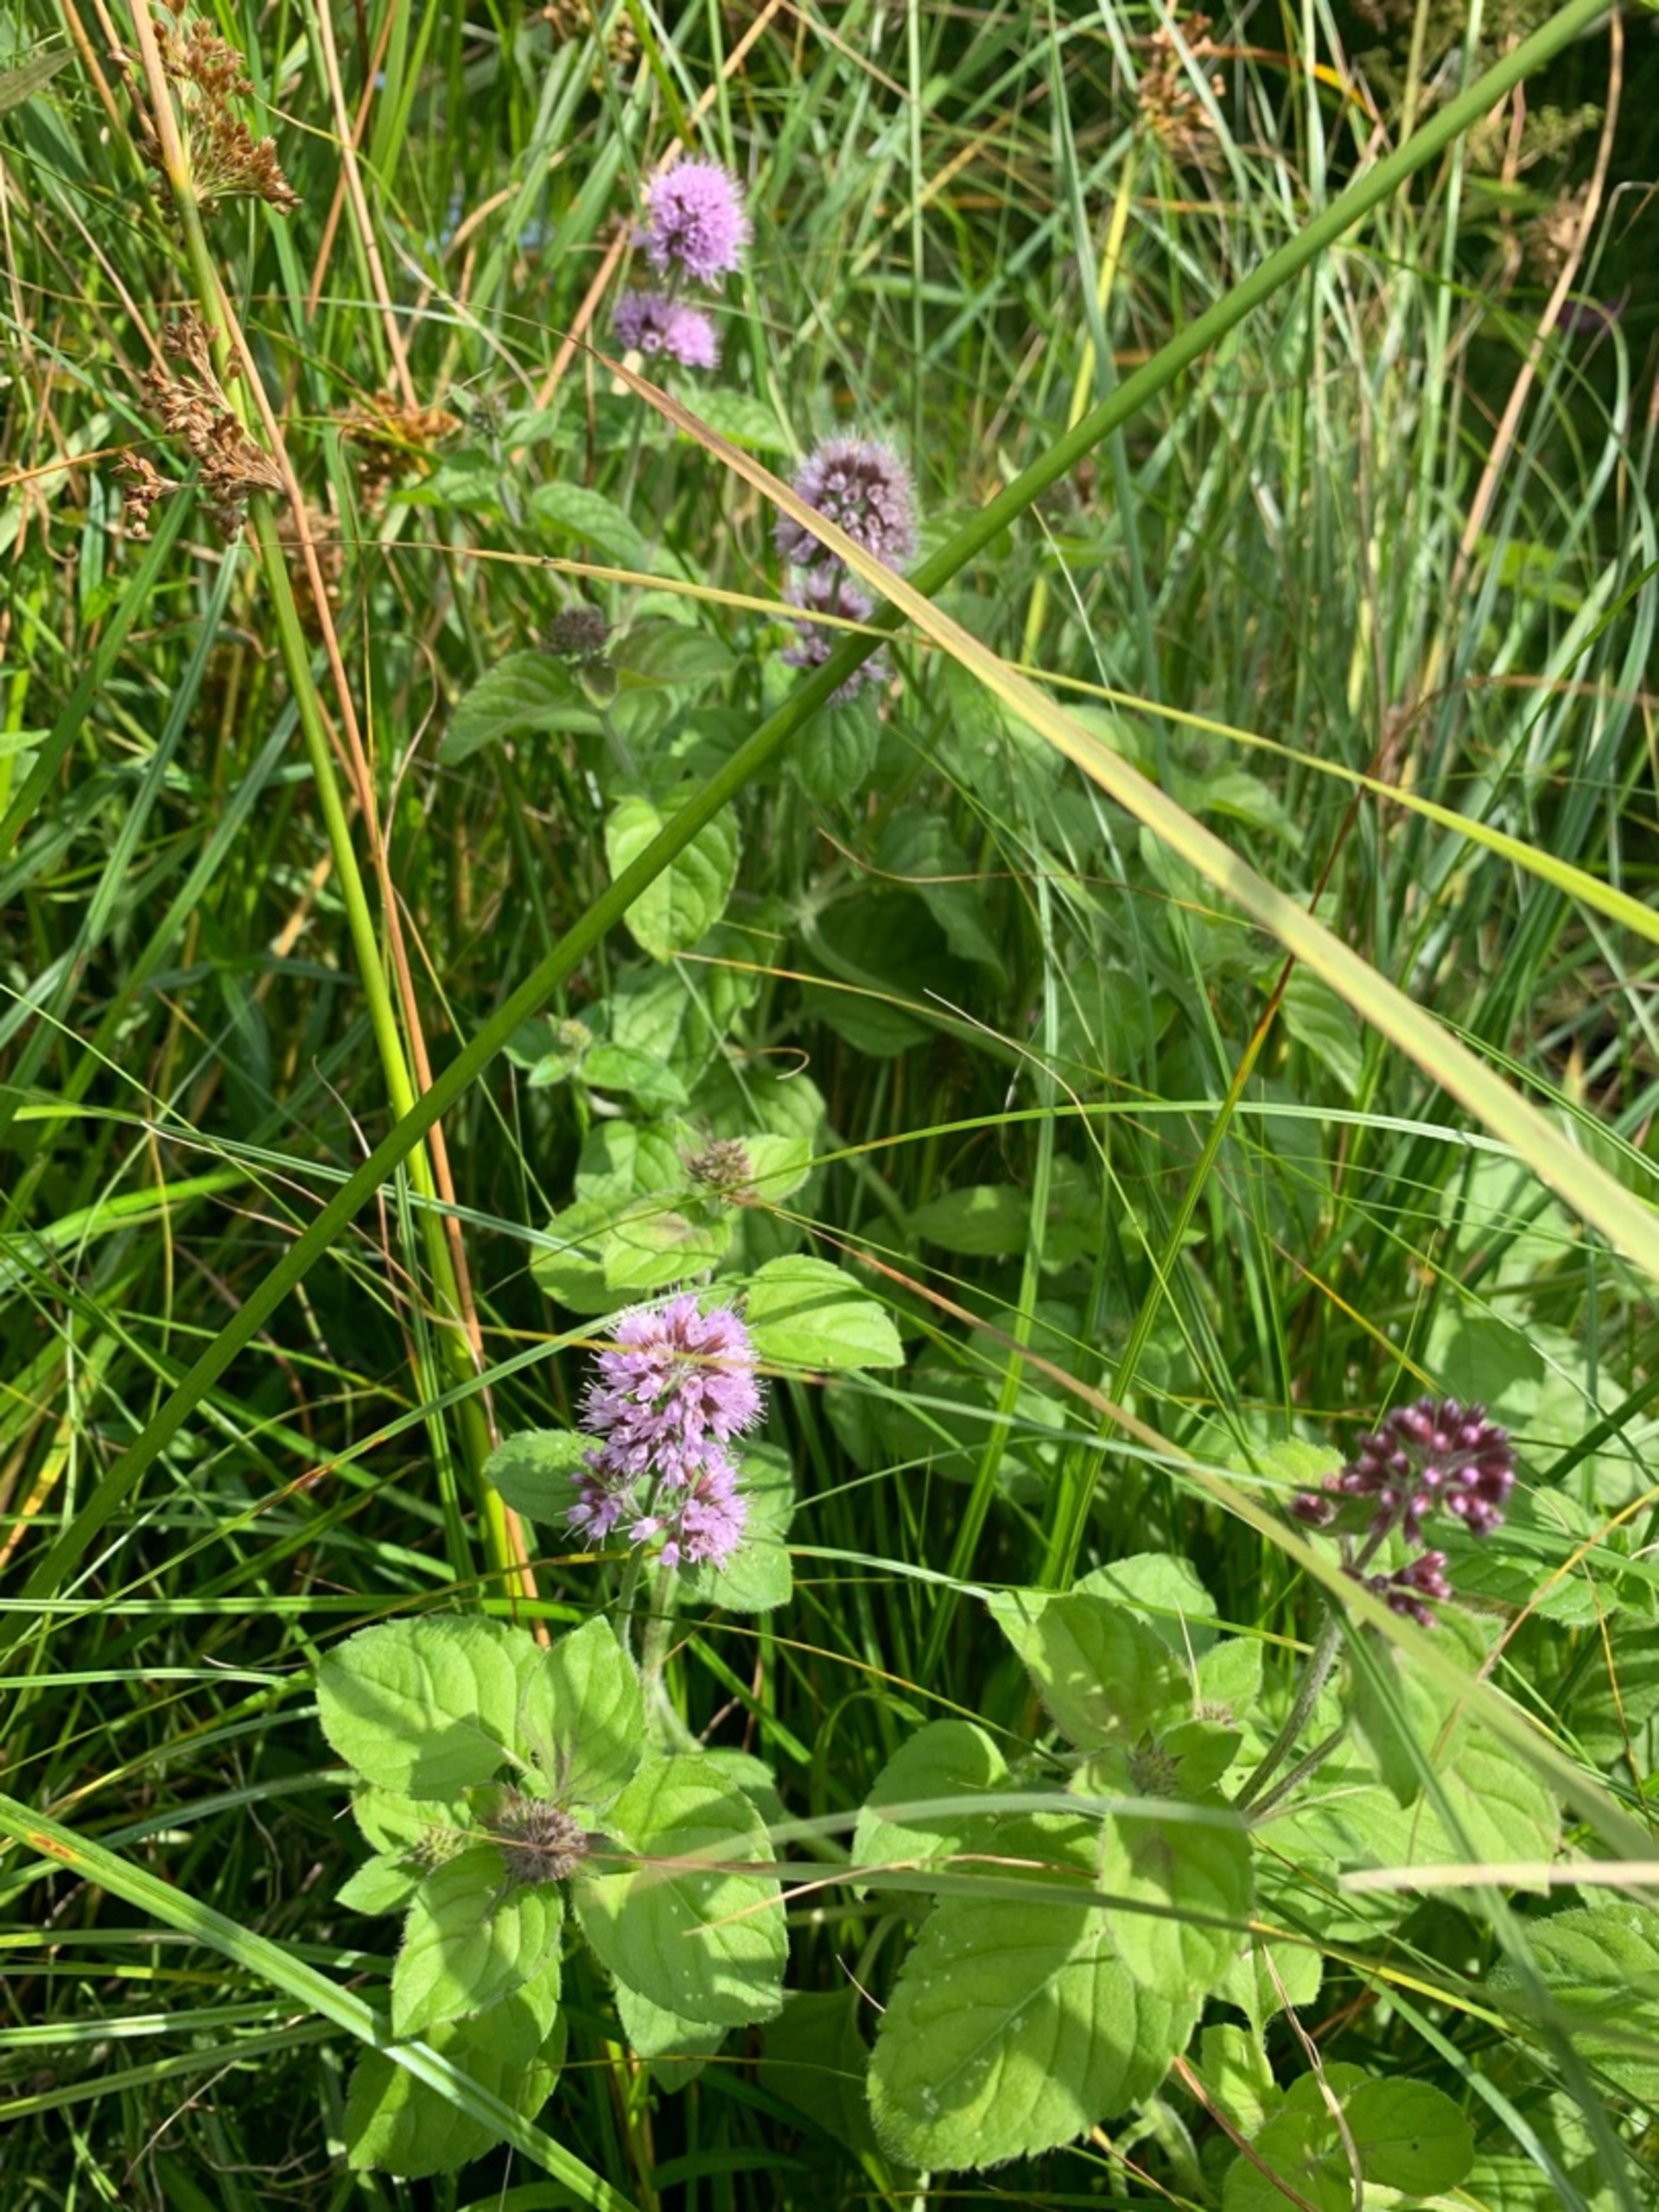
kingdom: Plantae
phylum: Tracheophyta
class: Magnoliopsida
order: Lamiales
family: Lamiaceae
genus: Mentha
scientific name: Mentha aquatica
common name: Vand-mynte
